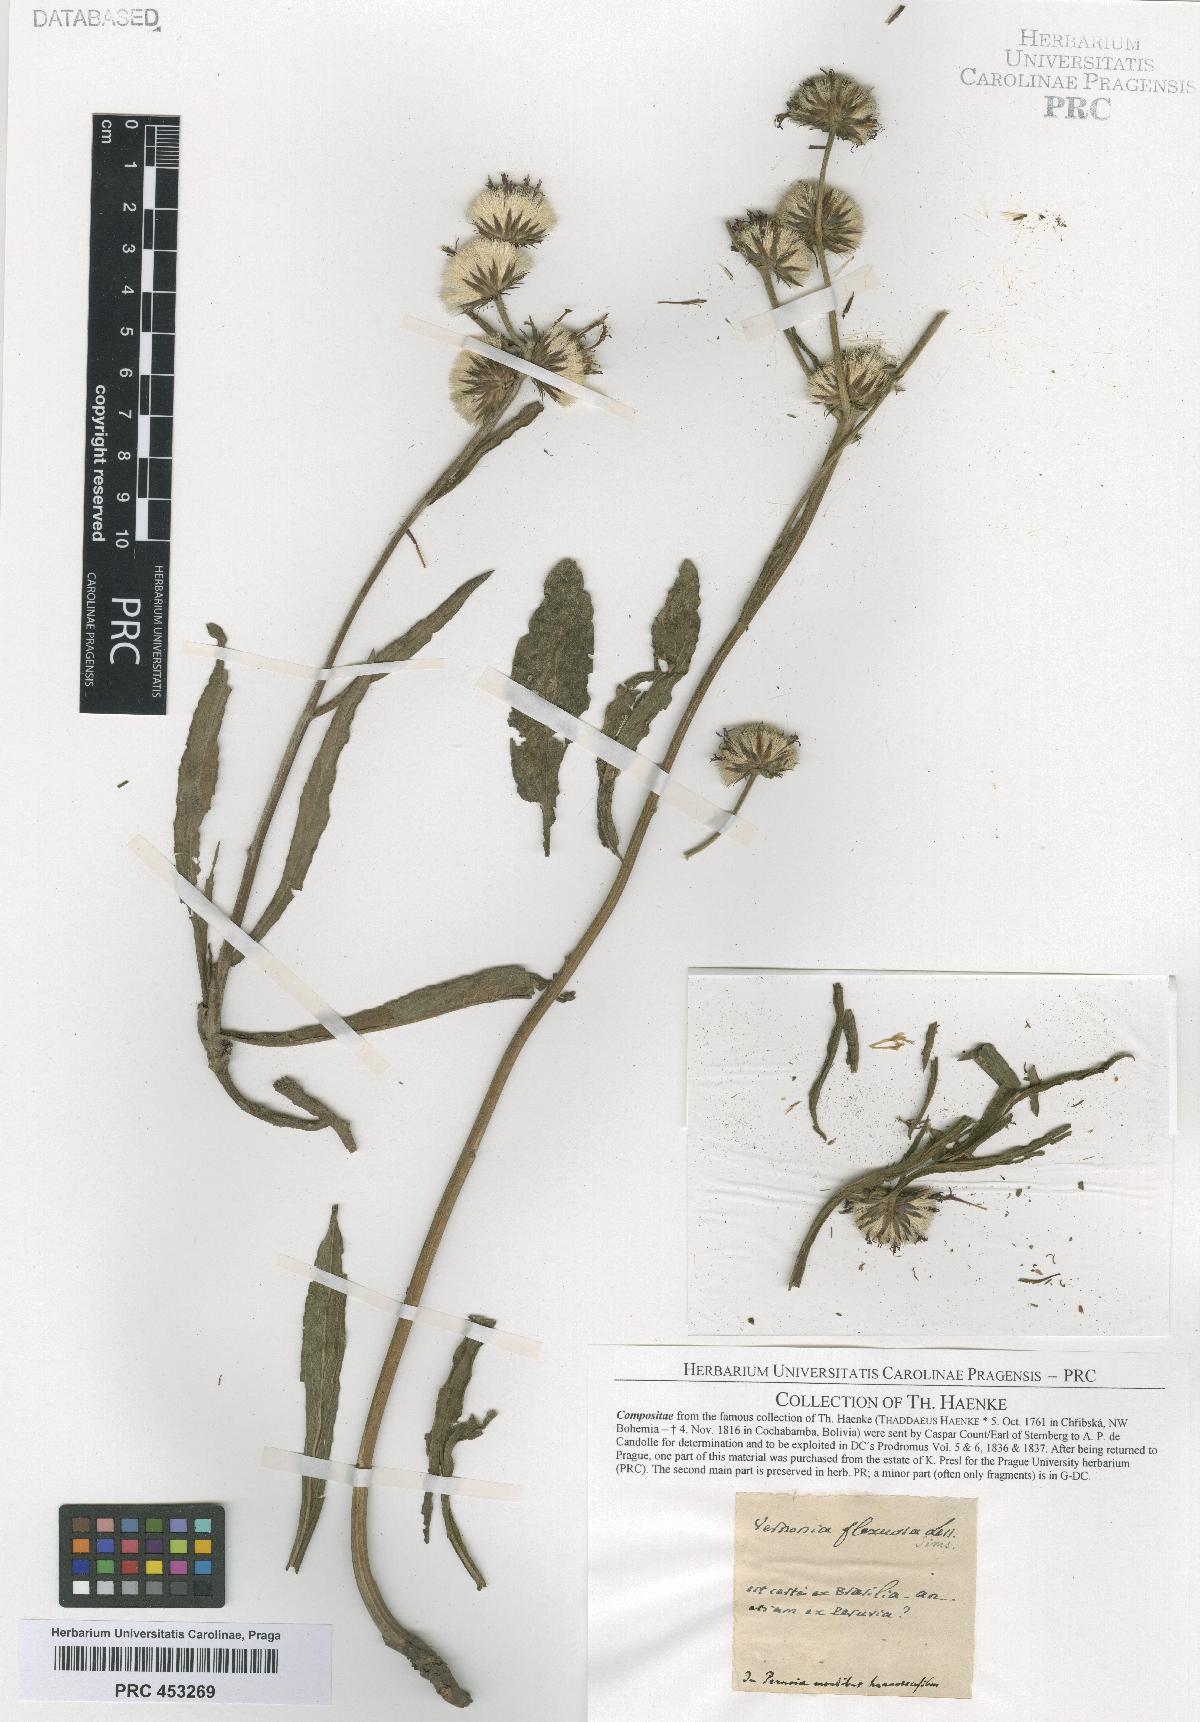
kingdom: Plantae
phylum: Tracheophyta
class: Magnoliopsida
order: Asterales
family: Asteraceae
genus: Vernonia
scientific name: Vernonia
